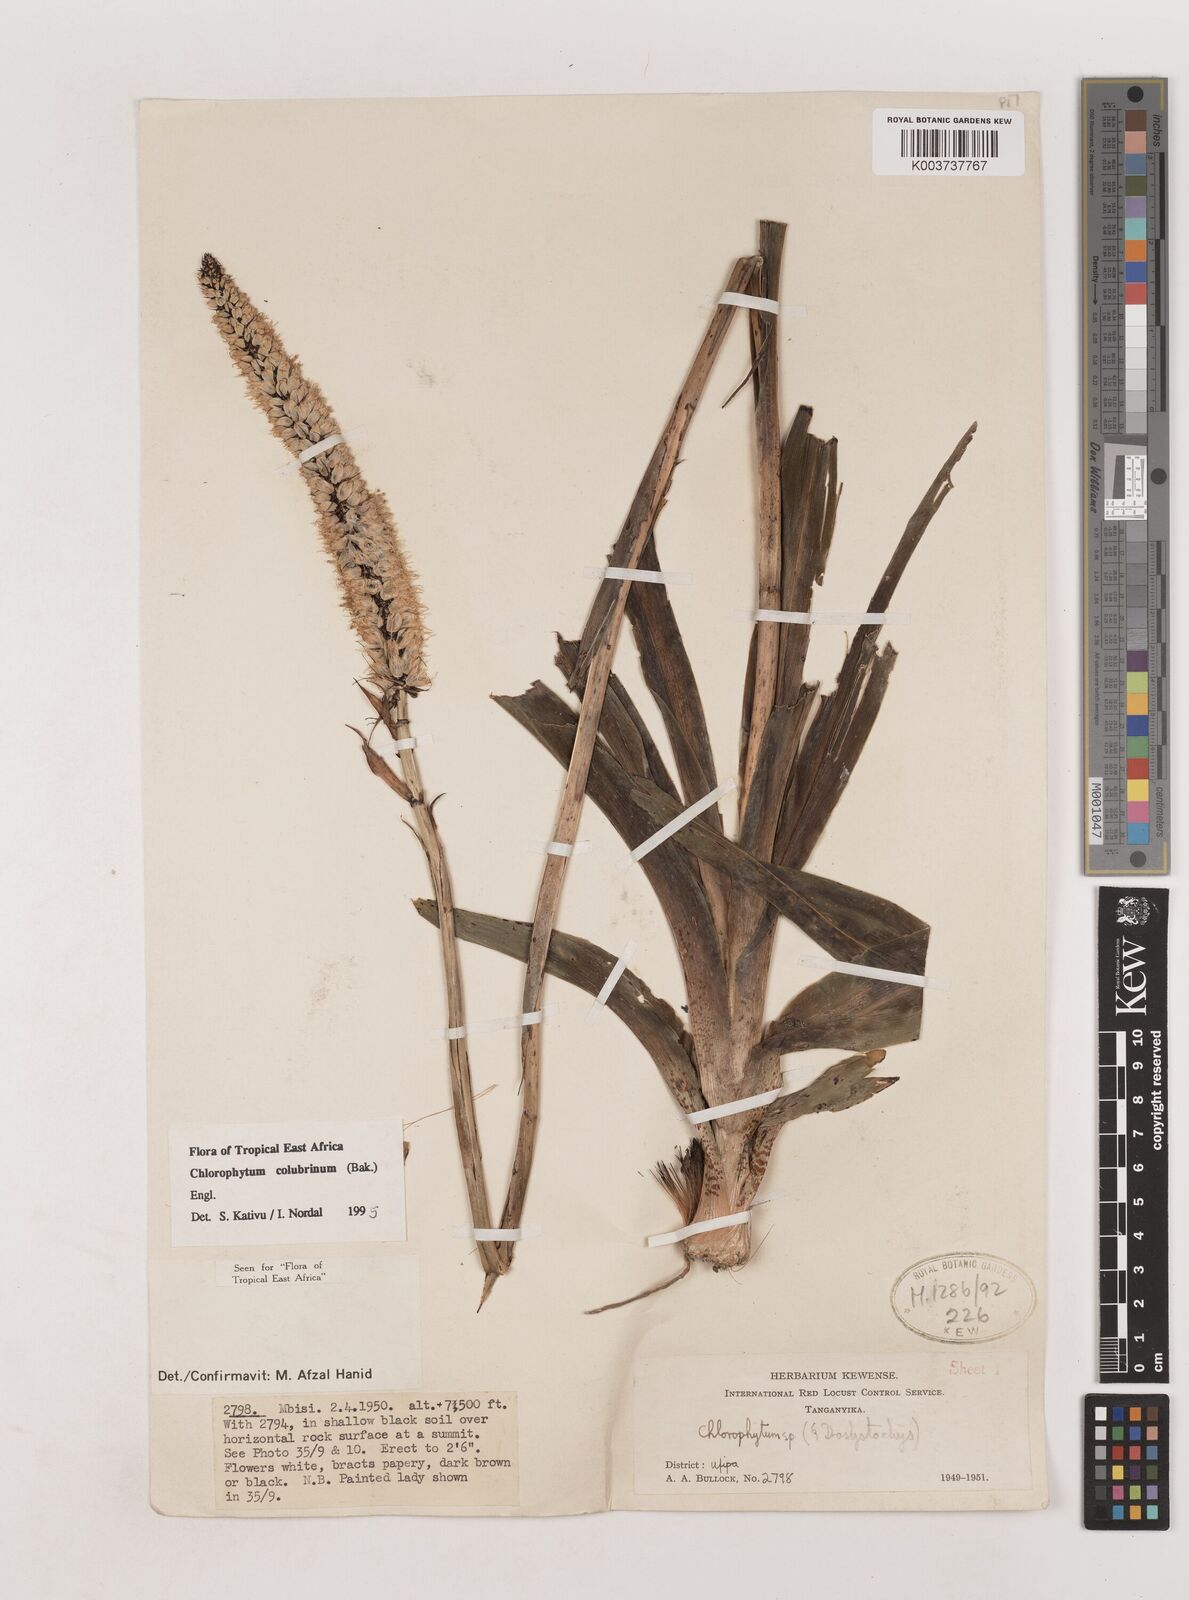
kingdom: Plantae
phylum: Tracheophyta
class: Liliopsida
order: Asparagales
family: Asparagaceae
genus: Chlorophytum
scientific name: Chlorophytum colubrinum
